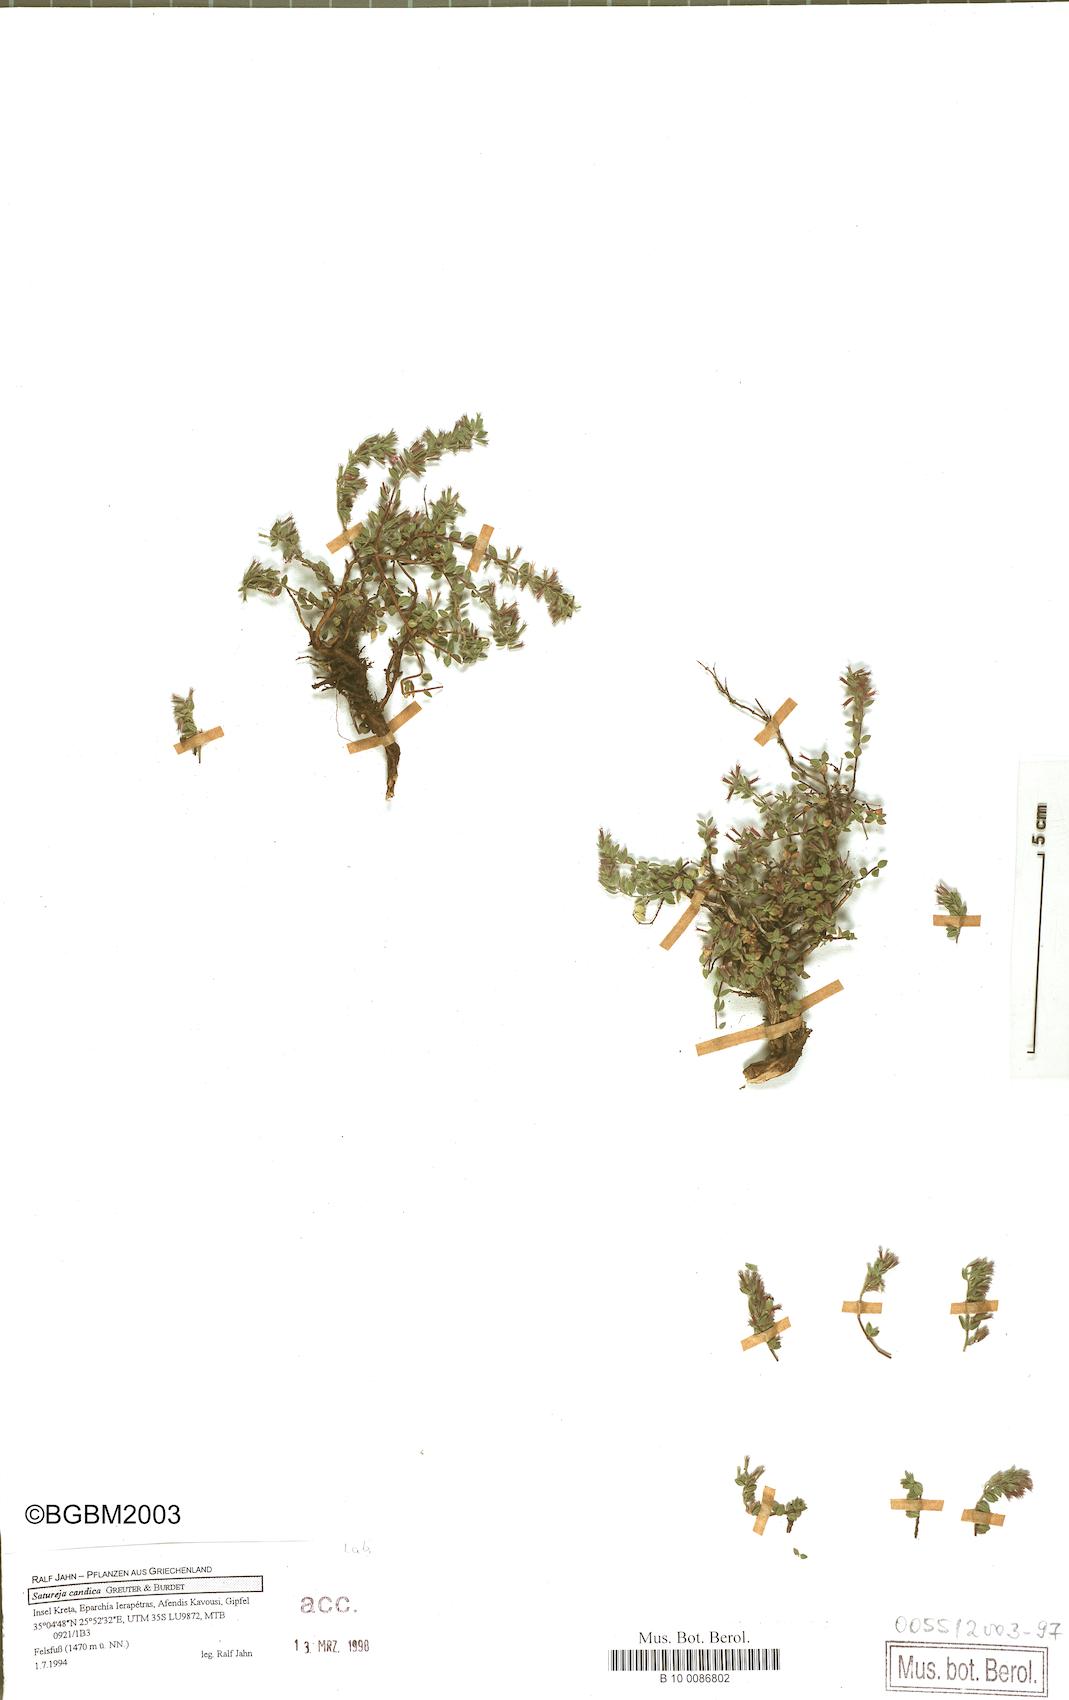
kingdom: Plantae
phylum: Tracheophyta
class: Magnoliopsida
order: Lamiales
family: Lamiaceae
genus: Micromeria
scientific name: Micromeria hispida
